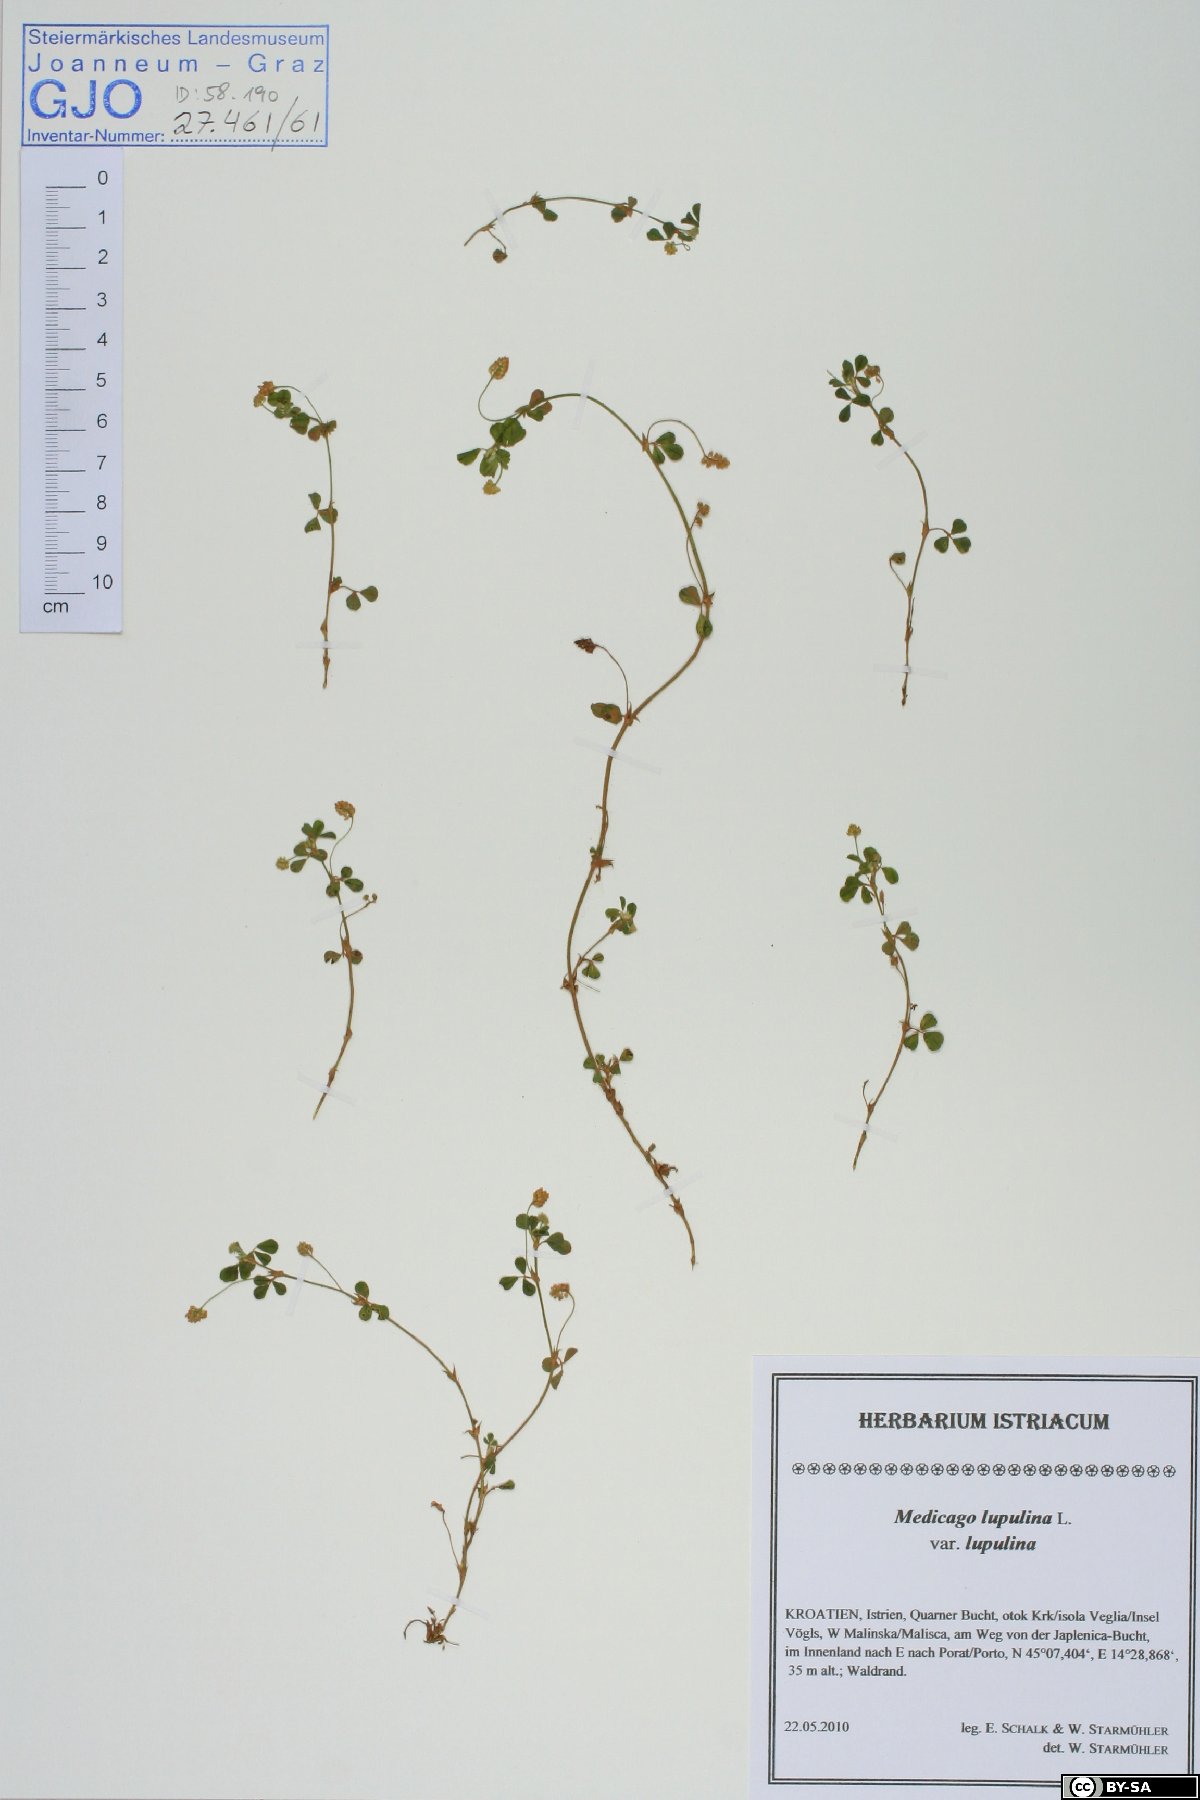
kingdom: Plantae
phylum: Tracheophyta
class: Magnoliopsida
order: Fabales
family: Fabaceae
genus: Medicago
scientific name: Medicago lupulina
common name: Black medick
